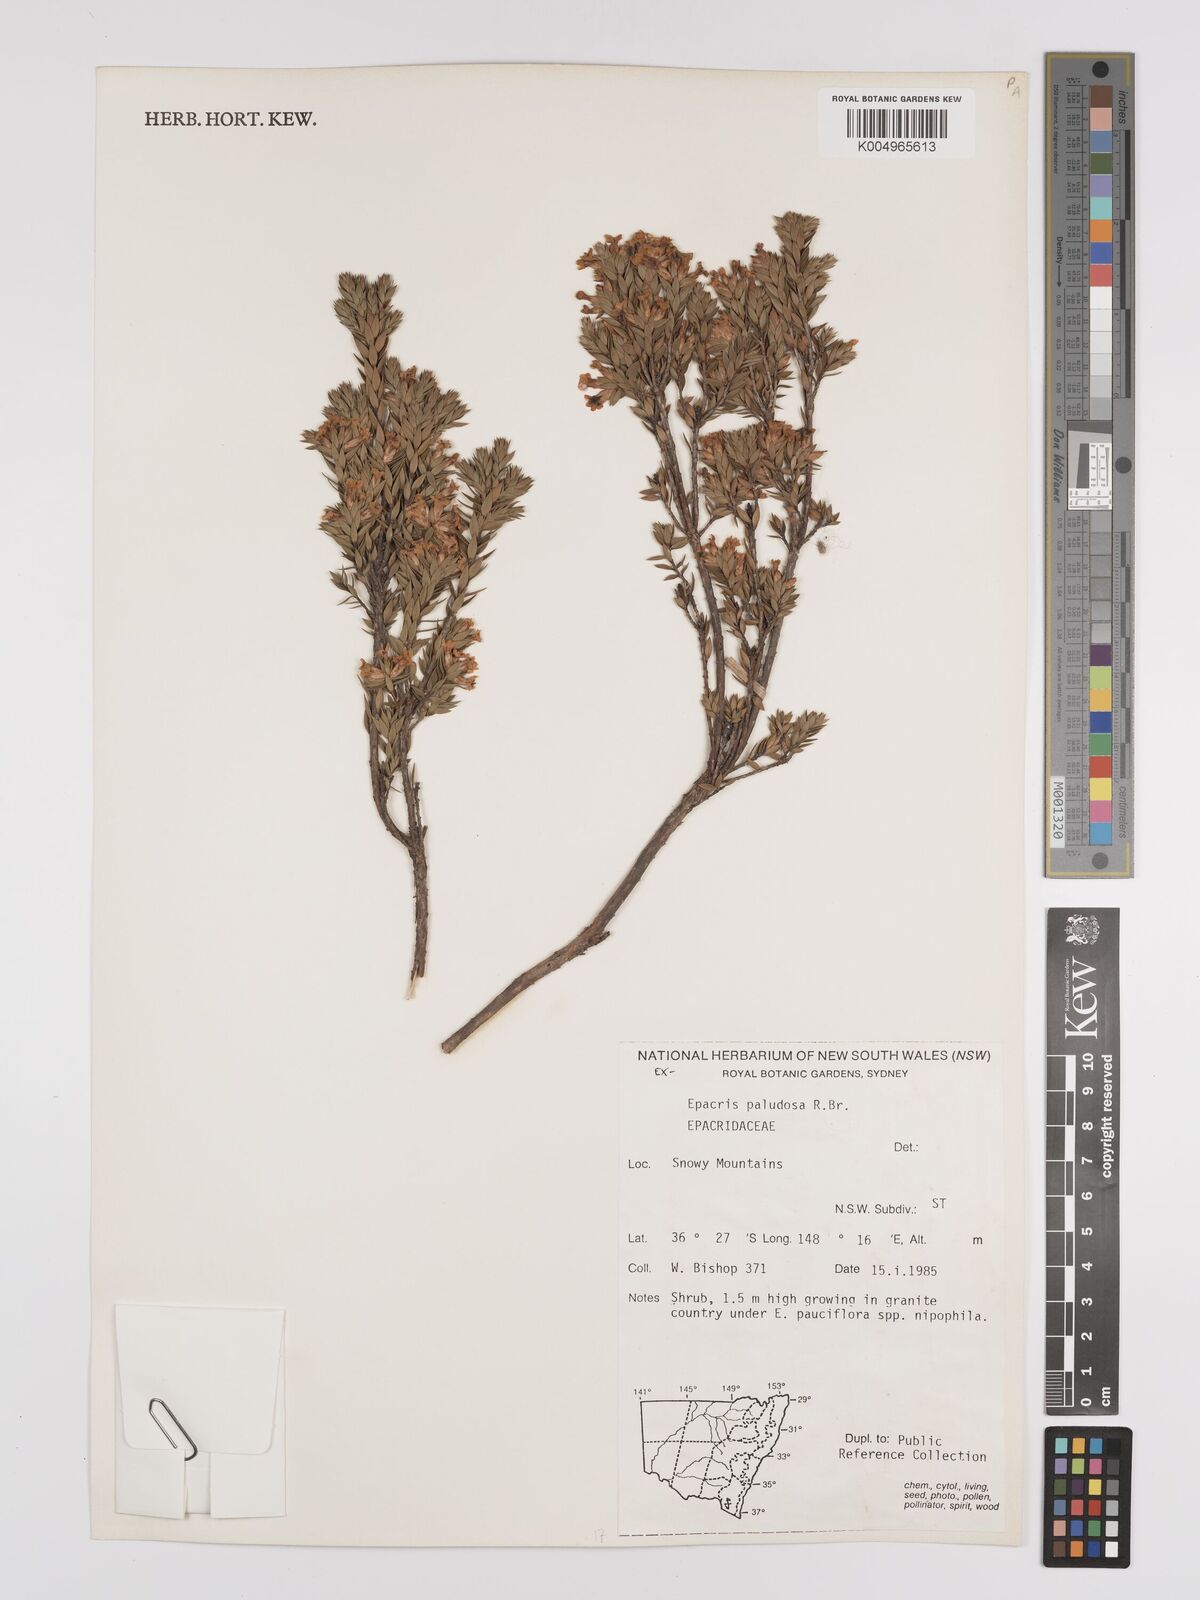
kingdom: Plantae
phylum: Tracheophyta
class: Magnoliopsida
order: Ericales
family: Ericaceae
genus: Epacris
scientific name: Epacris paludosa
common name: Swamp-heath
